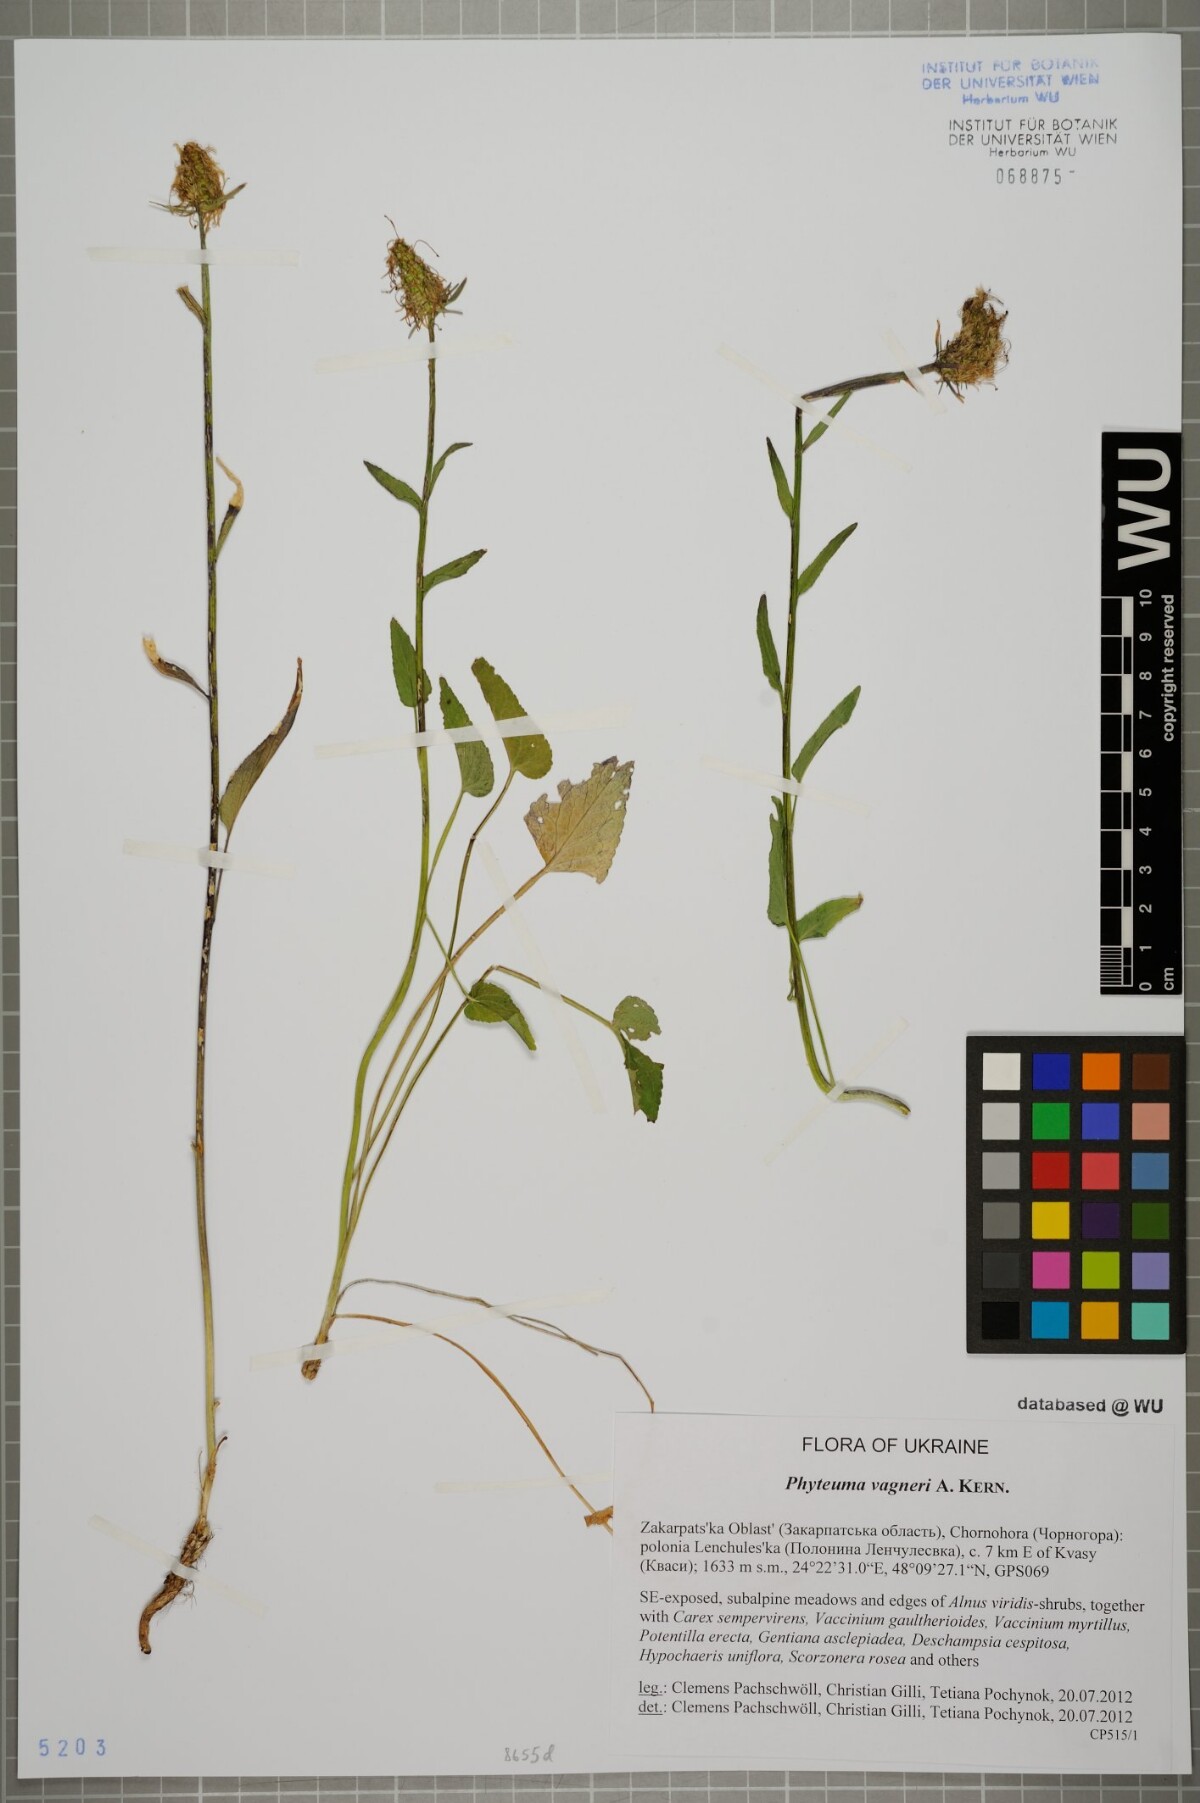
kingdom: Plantae
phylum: Tracheophyta
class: Magnoliopsida
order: Asterales
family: Campanulaceae
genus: Phyteuma
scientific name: Phyteuma vagneri
